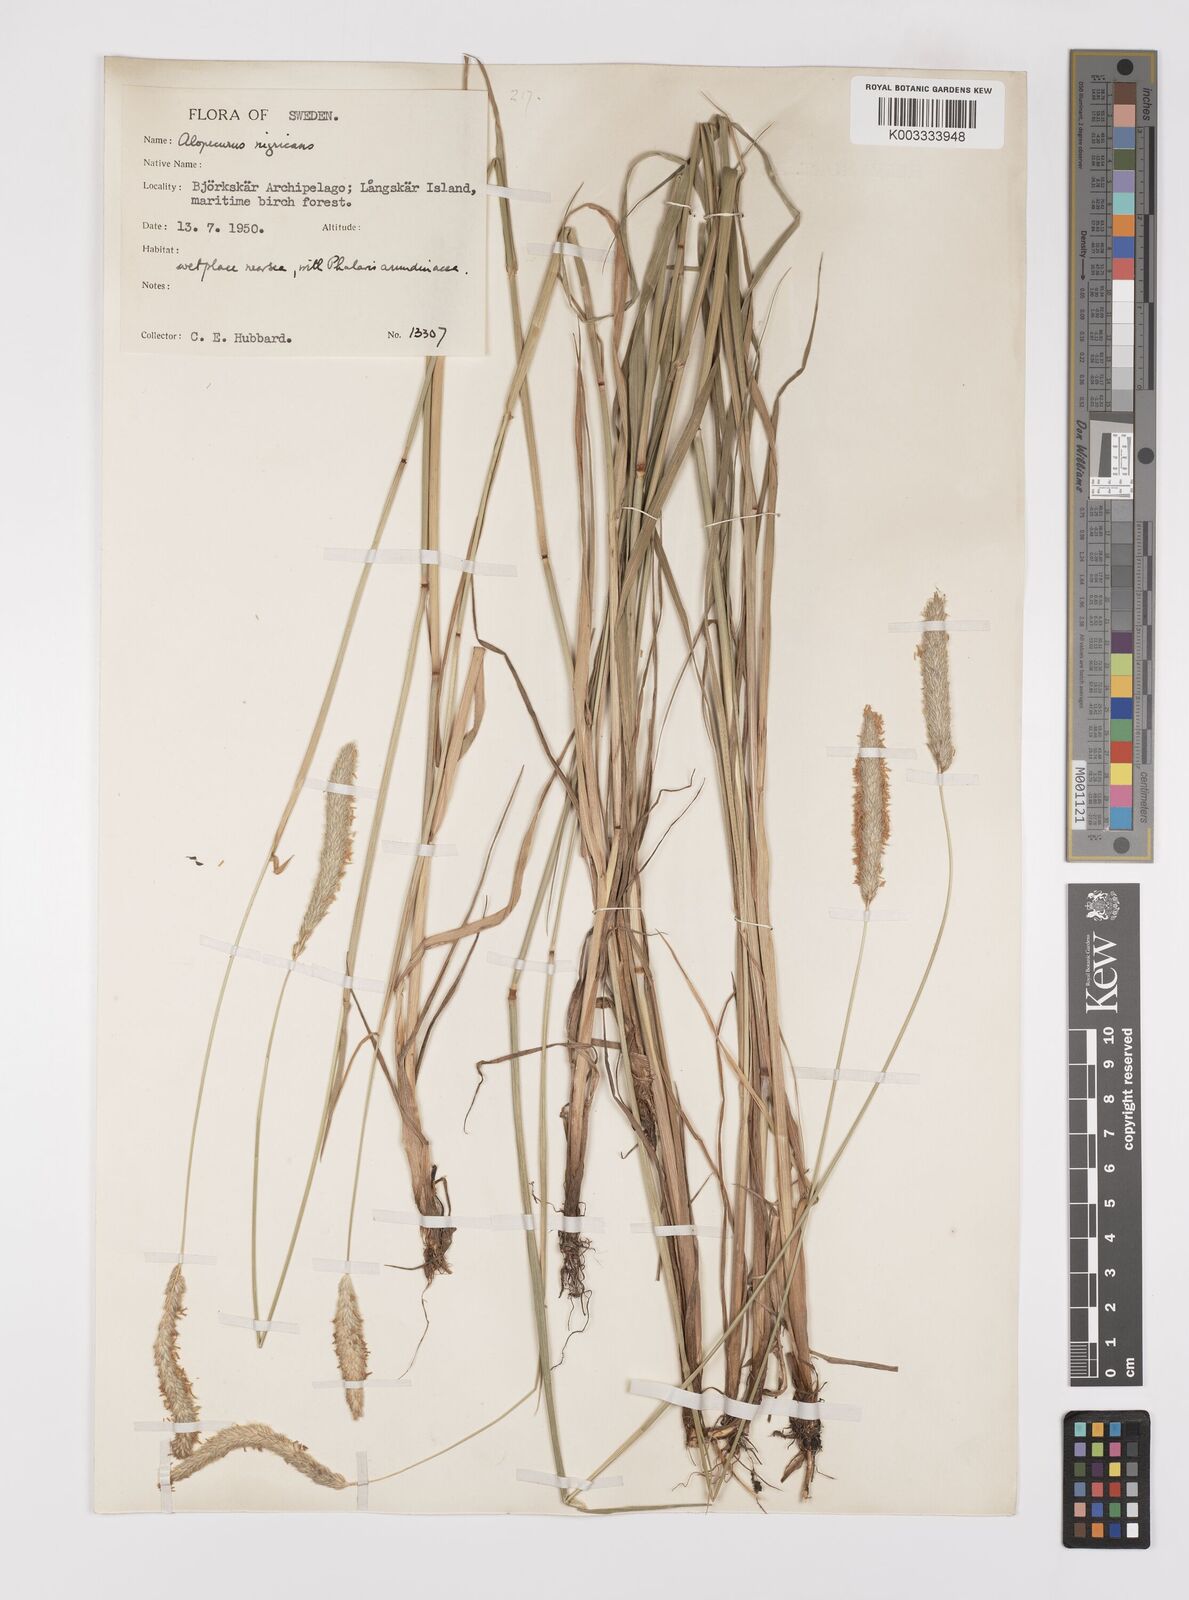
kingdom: Plantae
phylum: Tracheophyta
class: Liliopsida
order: Poales
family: Poaceae
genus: Alopecurus
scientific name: Alopecurus arundinaceus
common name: Creeping meadow foxtail
